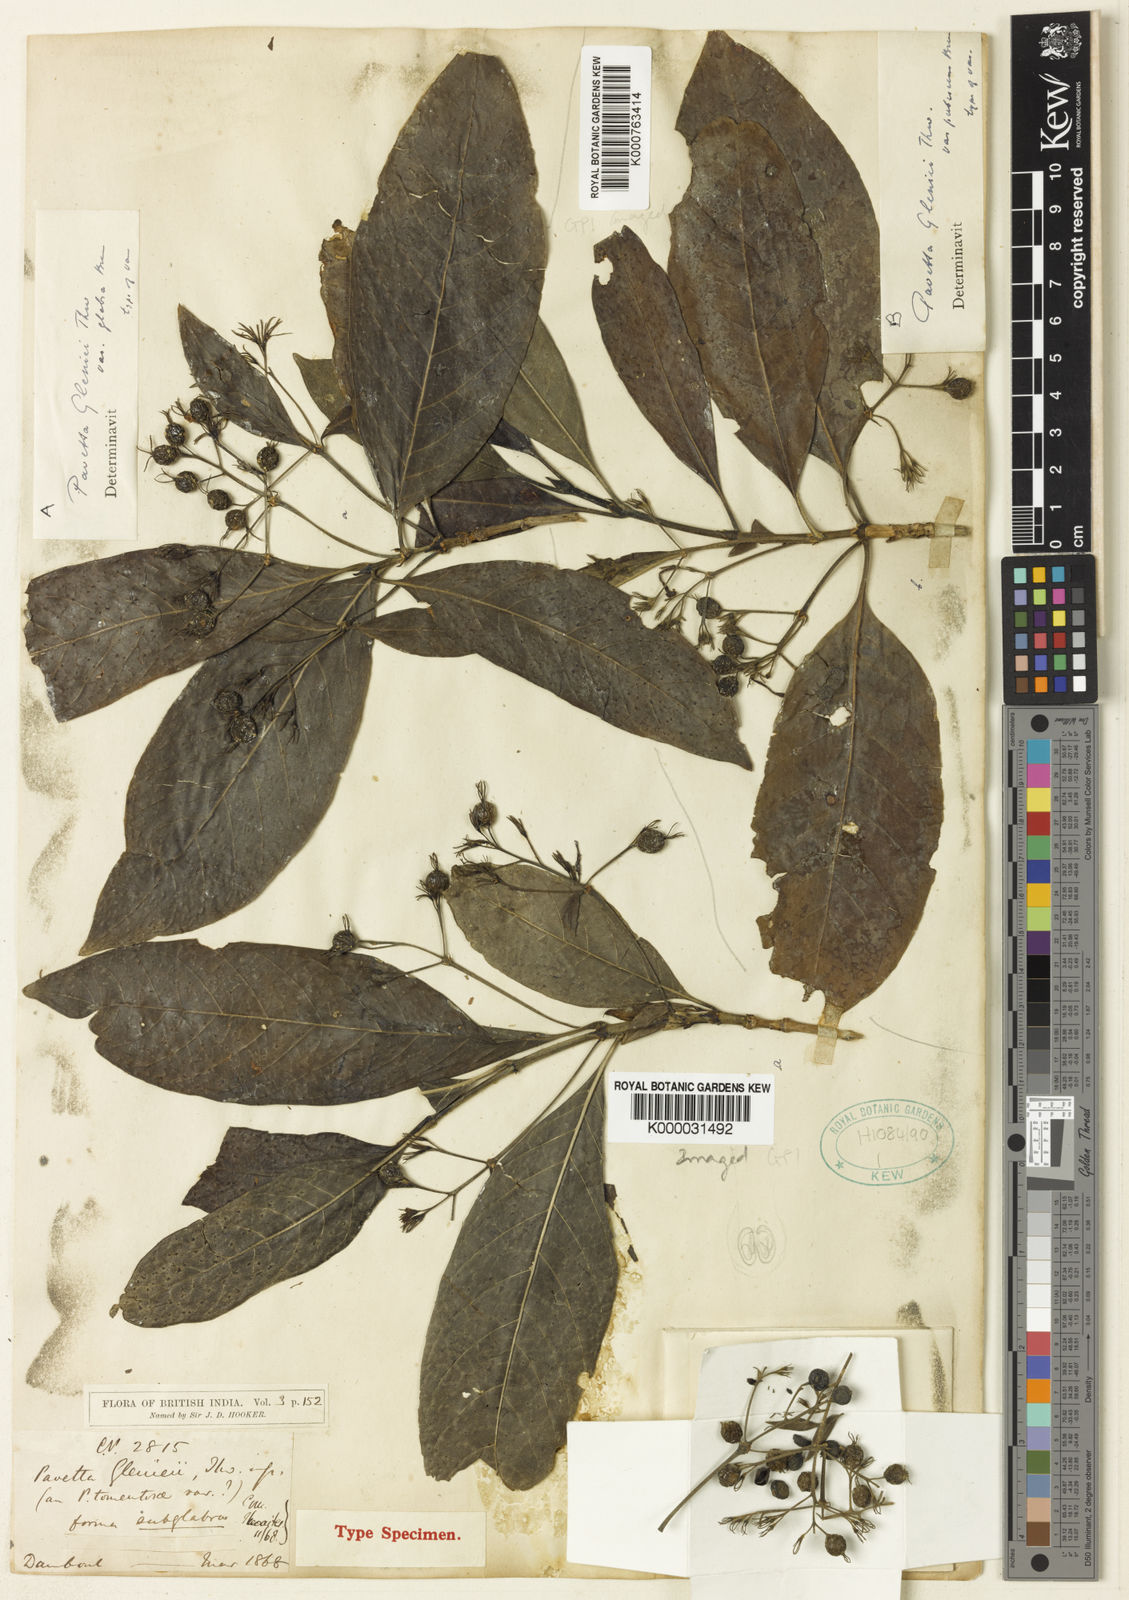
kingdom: Plantae
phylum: Tracheophyta
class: Magnoliopsida
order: Gentianales
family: Rubiaceae
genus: Pavetta
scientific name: Pavetta
